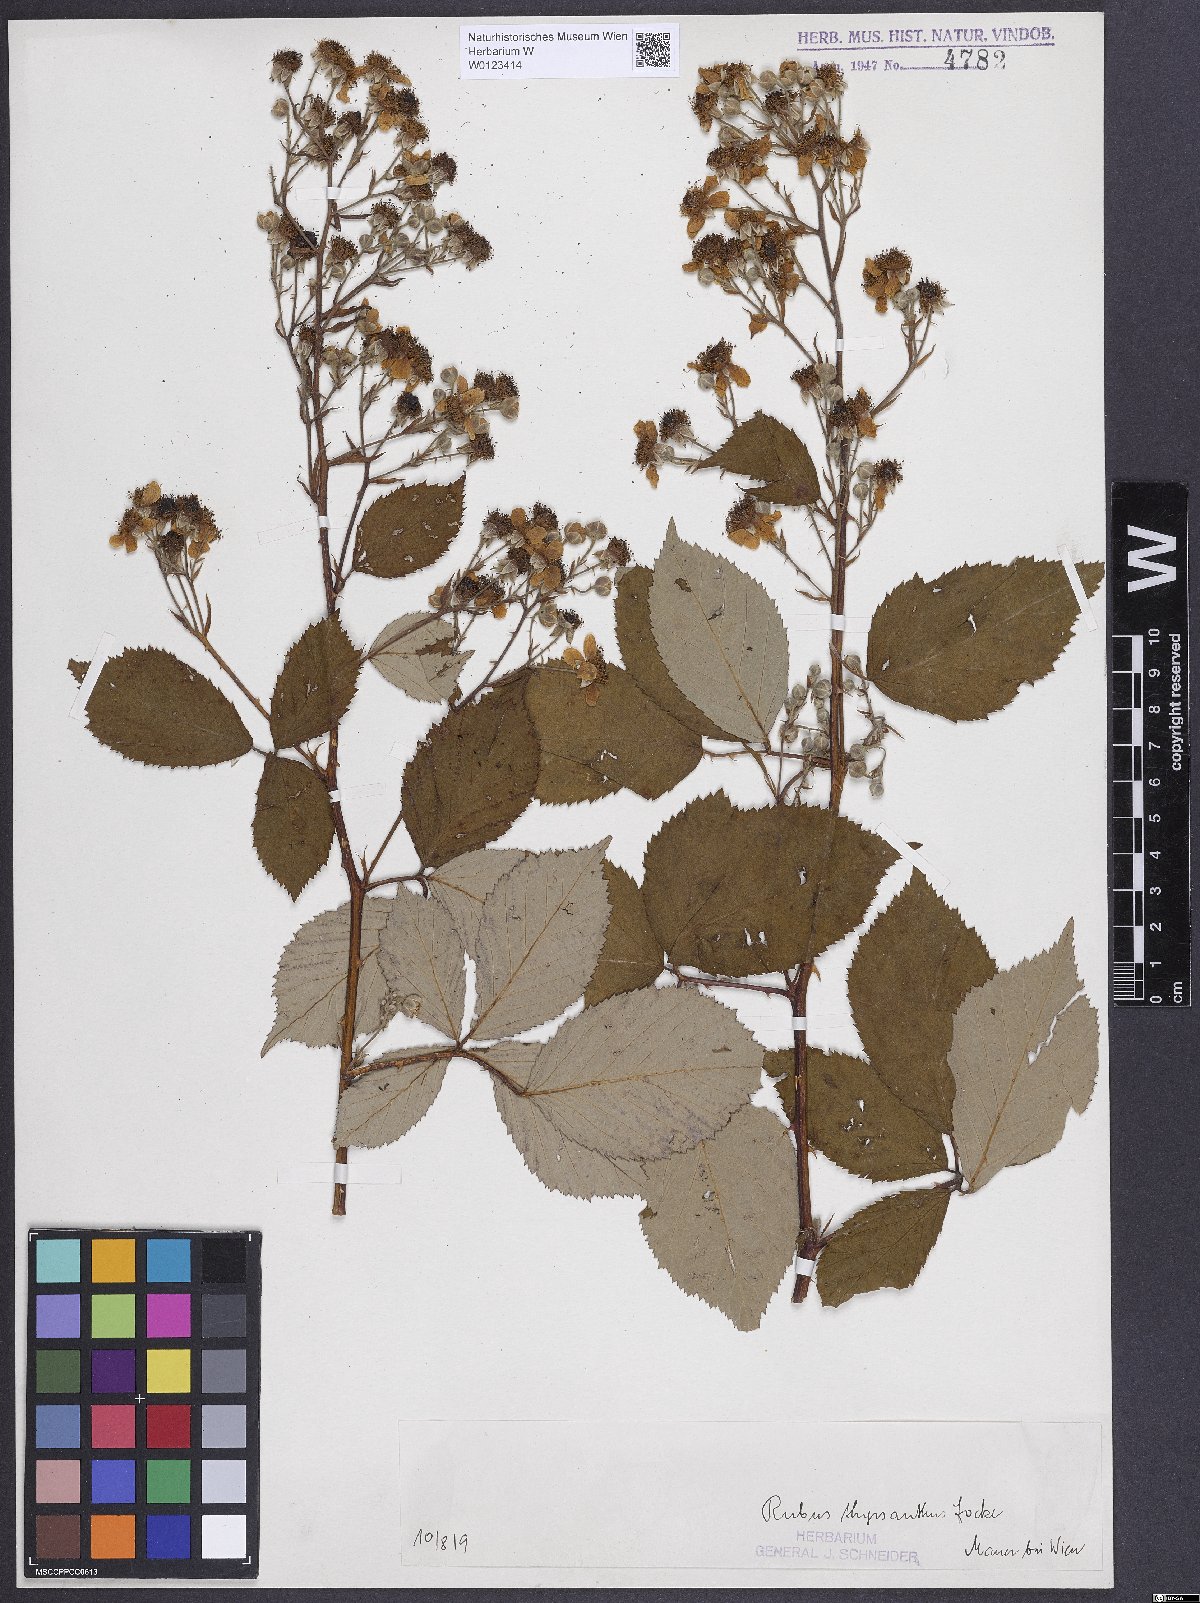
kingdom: Plantae
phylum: Tracheophyta
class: Magnoliopsida
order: Caryophyllales
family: Polygonaceae
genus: Rumex
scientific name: Rumex obtusifolius
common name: Bitter dock
